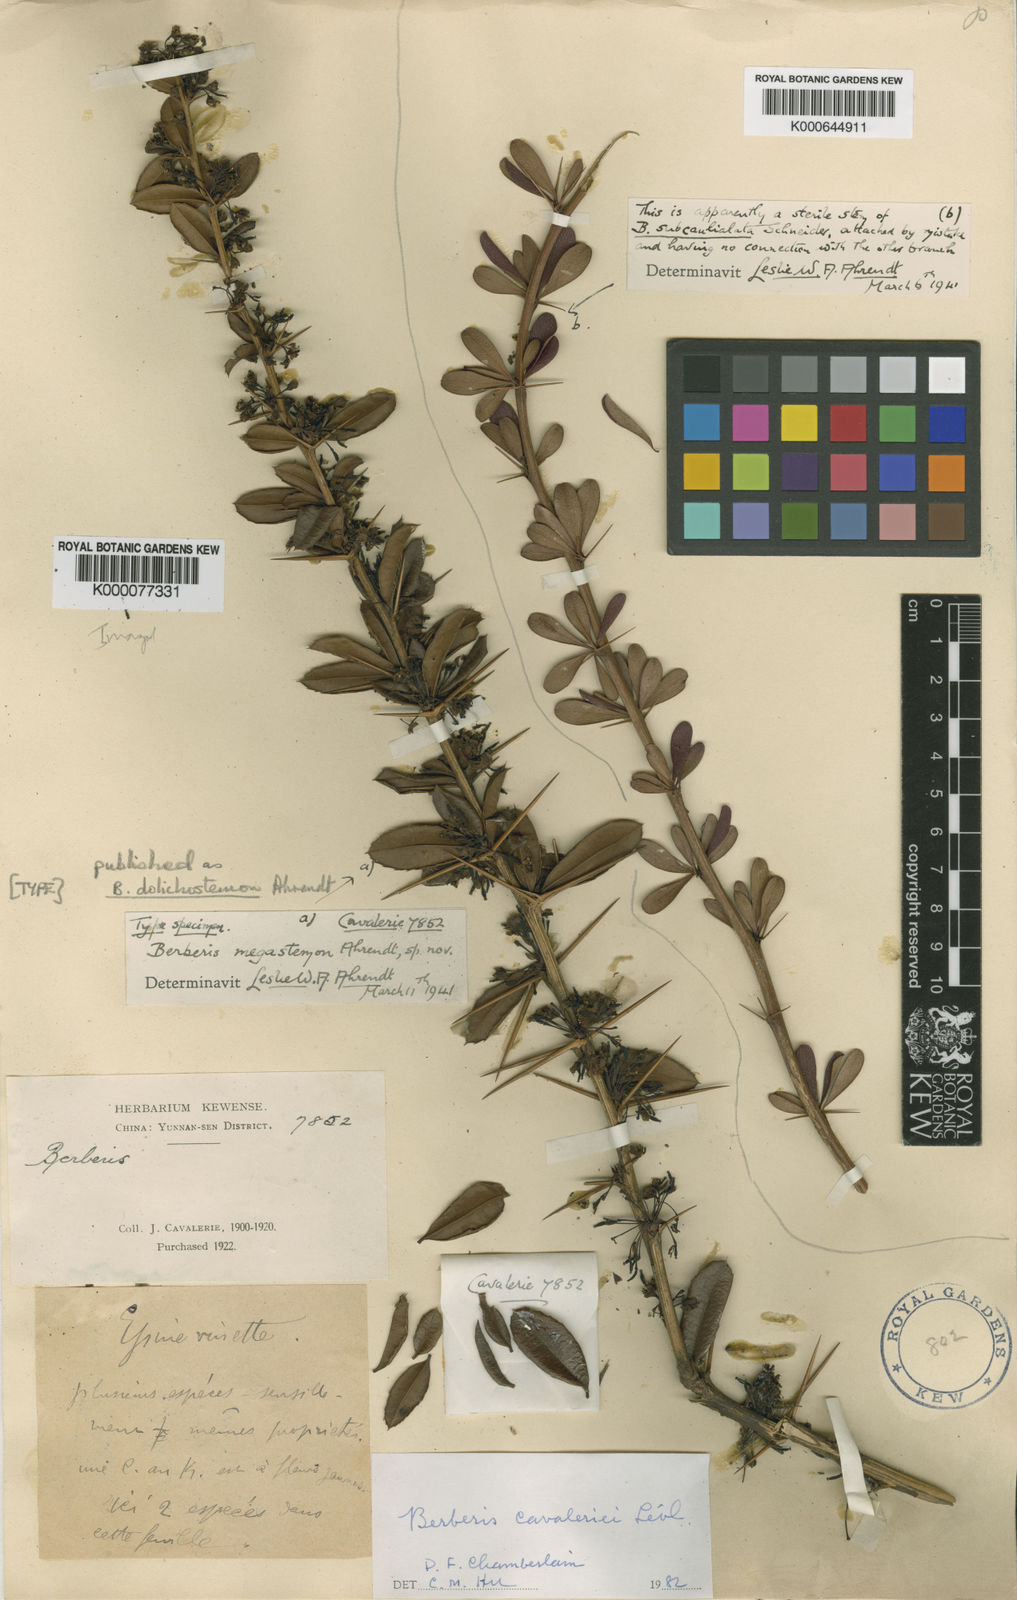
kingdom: Plantae
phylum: Tracheophyta
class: Magnoliopsida
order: Ranunculales
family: Berberidaceae
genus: Berberis
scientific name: Berberis
